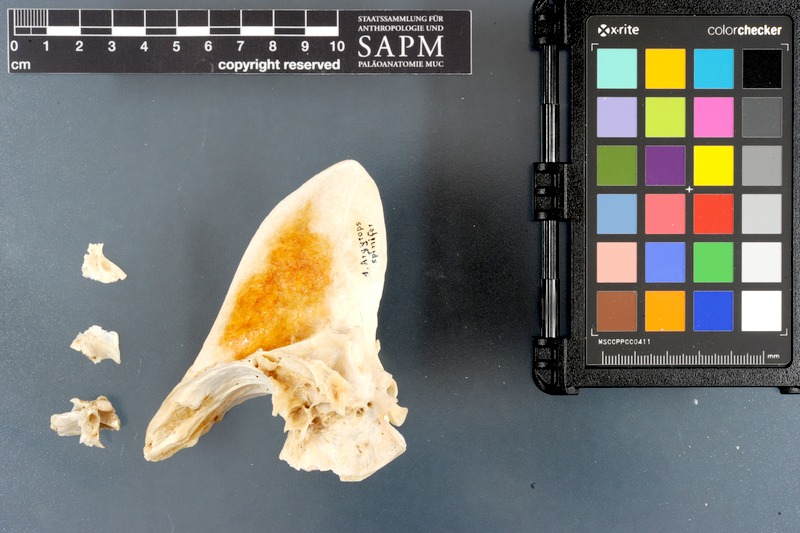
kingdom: Animalia
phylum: Chordata
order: Perciformes
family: Sparidae
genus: Argyrops
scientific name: Argyrops spinifer
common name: King soldier bream
